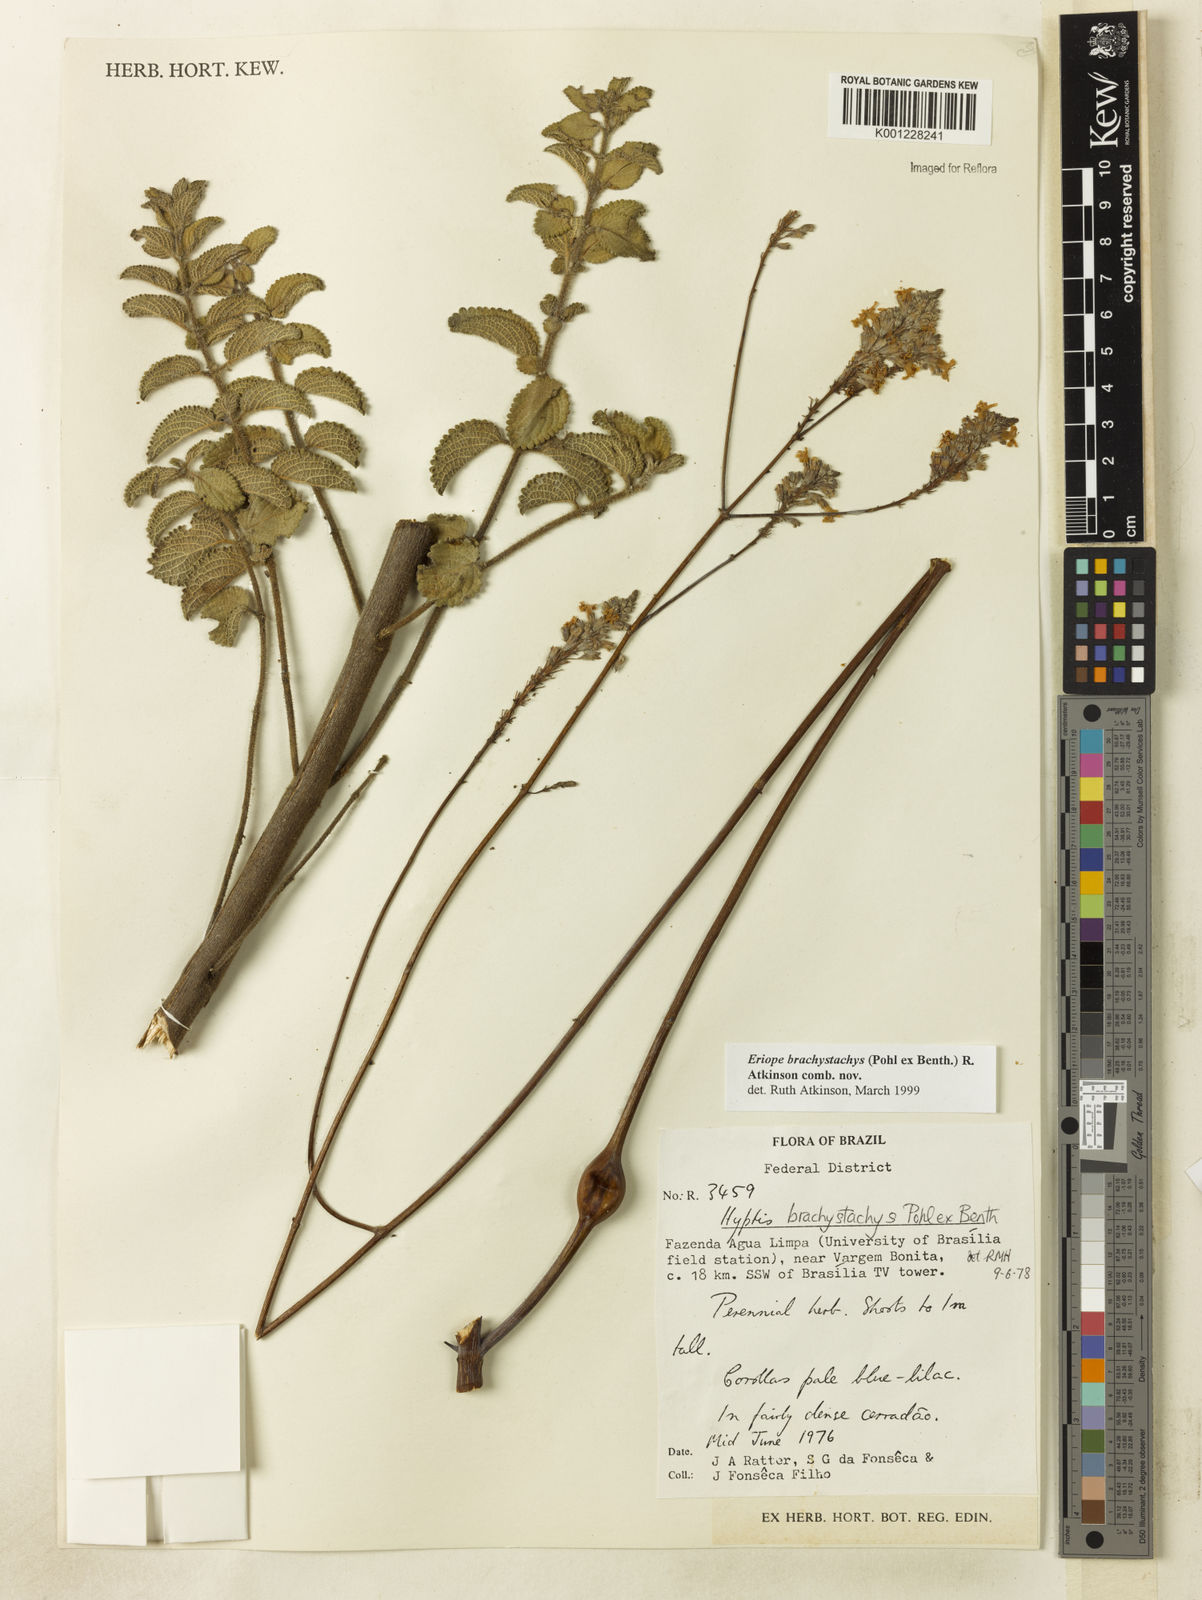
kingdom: Plantae
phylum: Tracheophyta
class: Magnoliopsida
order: Lamiales
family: Lamiaceae
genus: Hypenia
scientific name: Hypenia brachystachys
